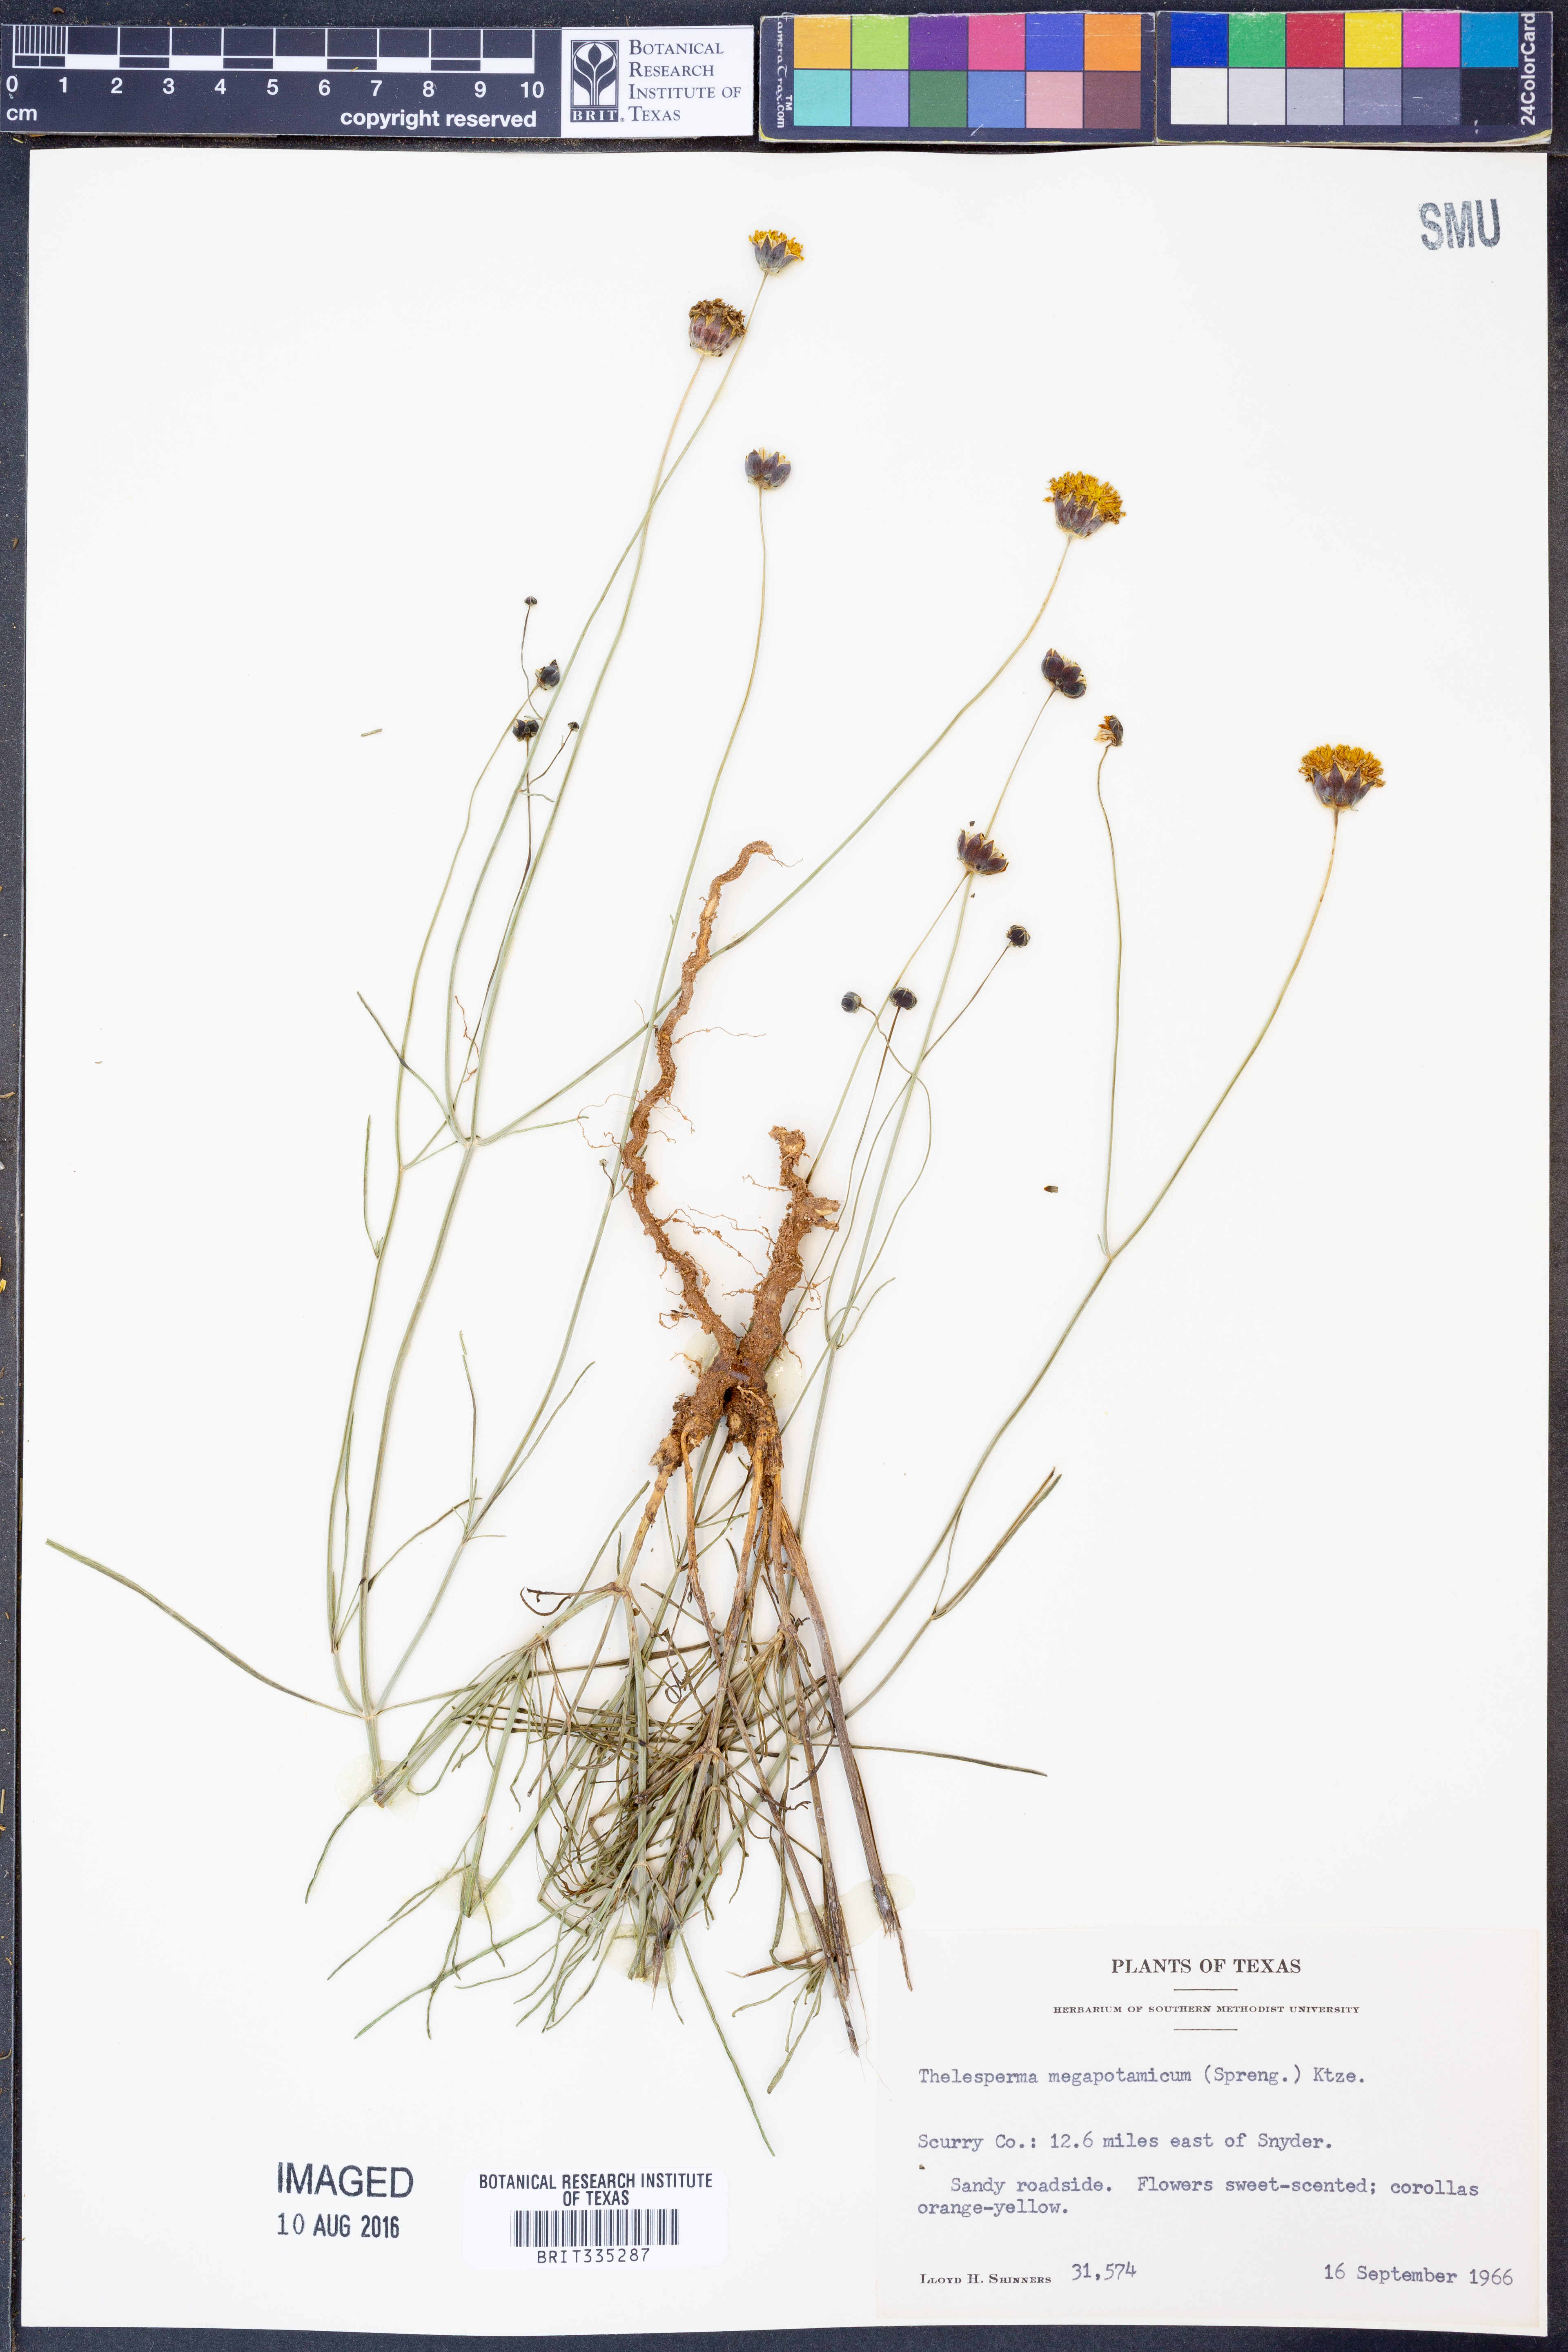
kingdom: Plantae
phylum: Tracheophyta
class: Magnoliopsida
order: Asterales
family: Asteraceae
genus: Thelesperma
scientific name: Thelesperma megapotamicum
